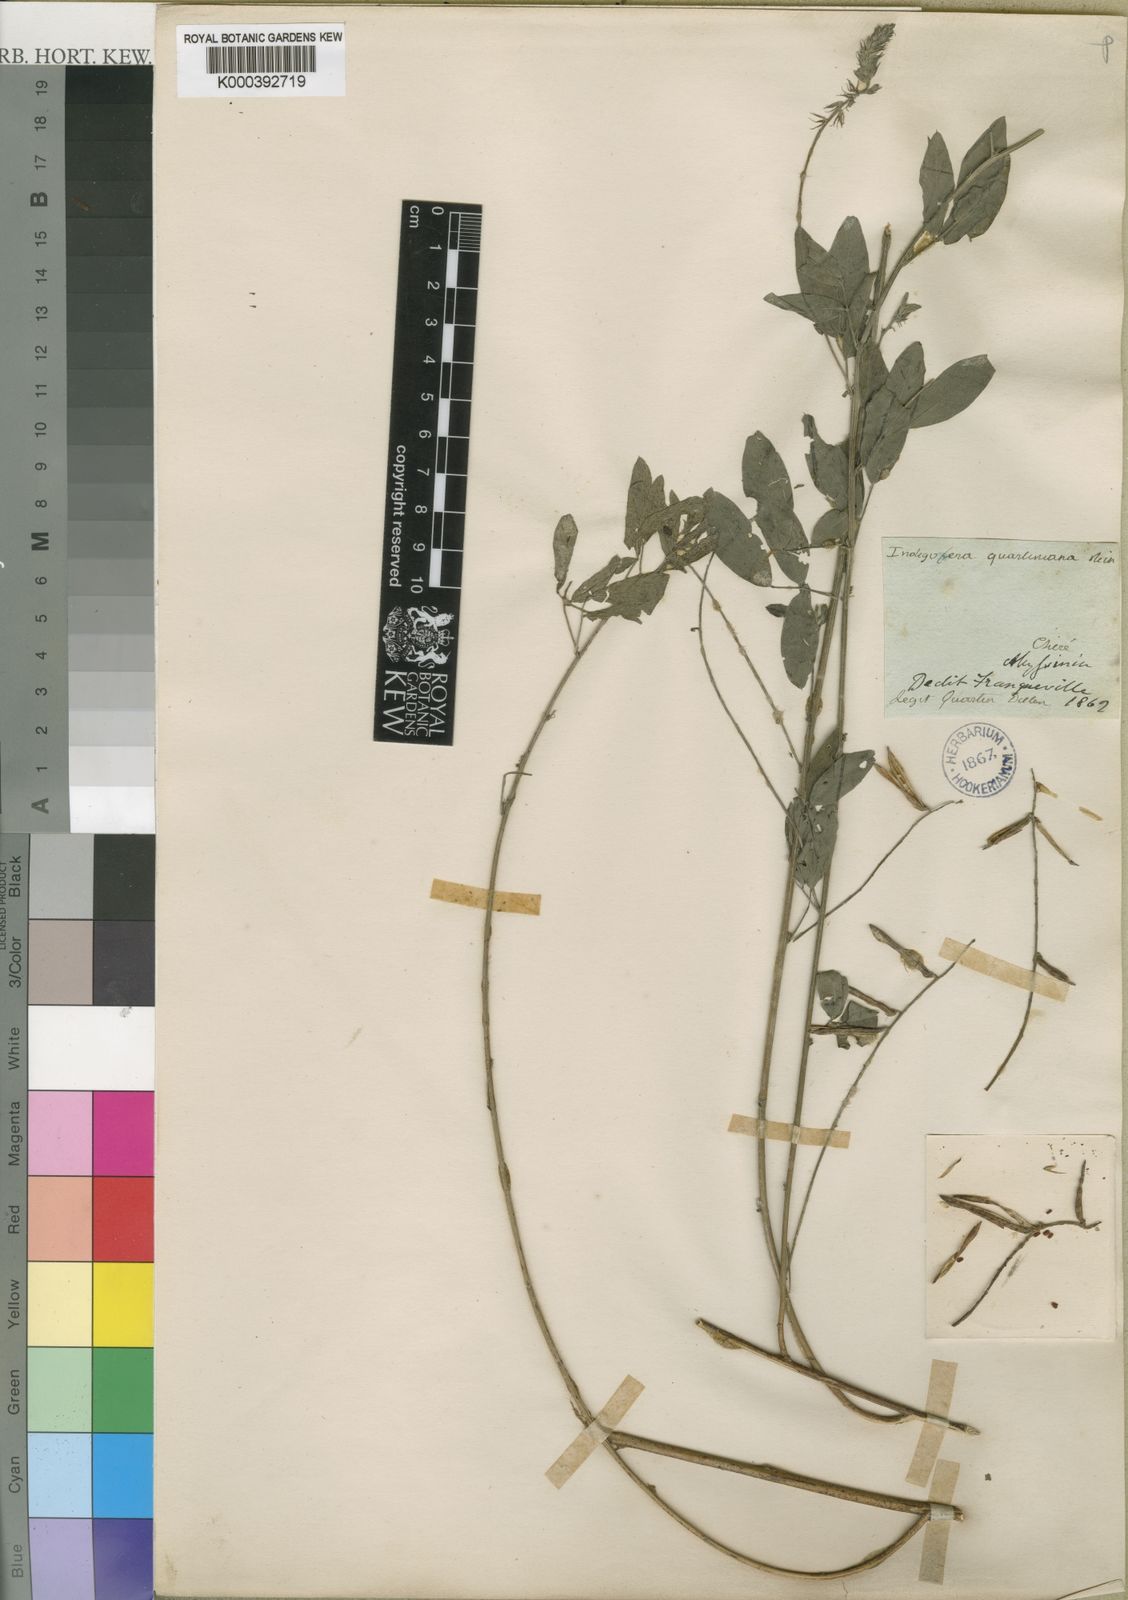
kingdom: Plantae
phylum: Tracheophyta
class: Magnoliopsida
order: Fabales
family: Fabaceae
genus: Indigofera
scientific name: Indigofera trita
